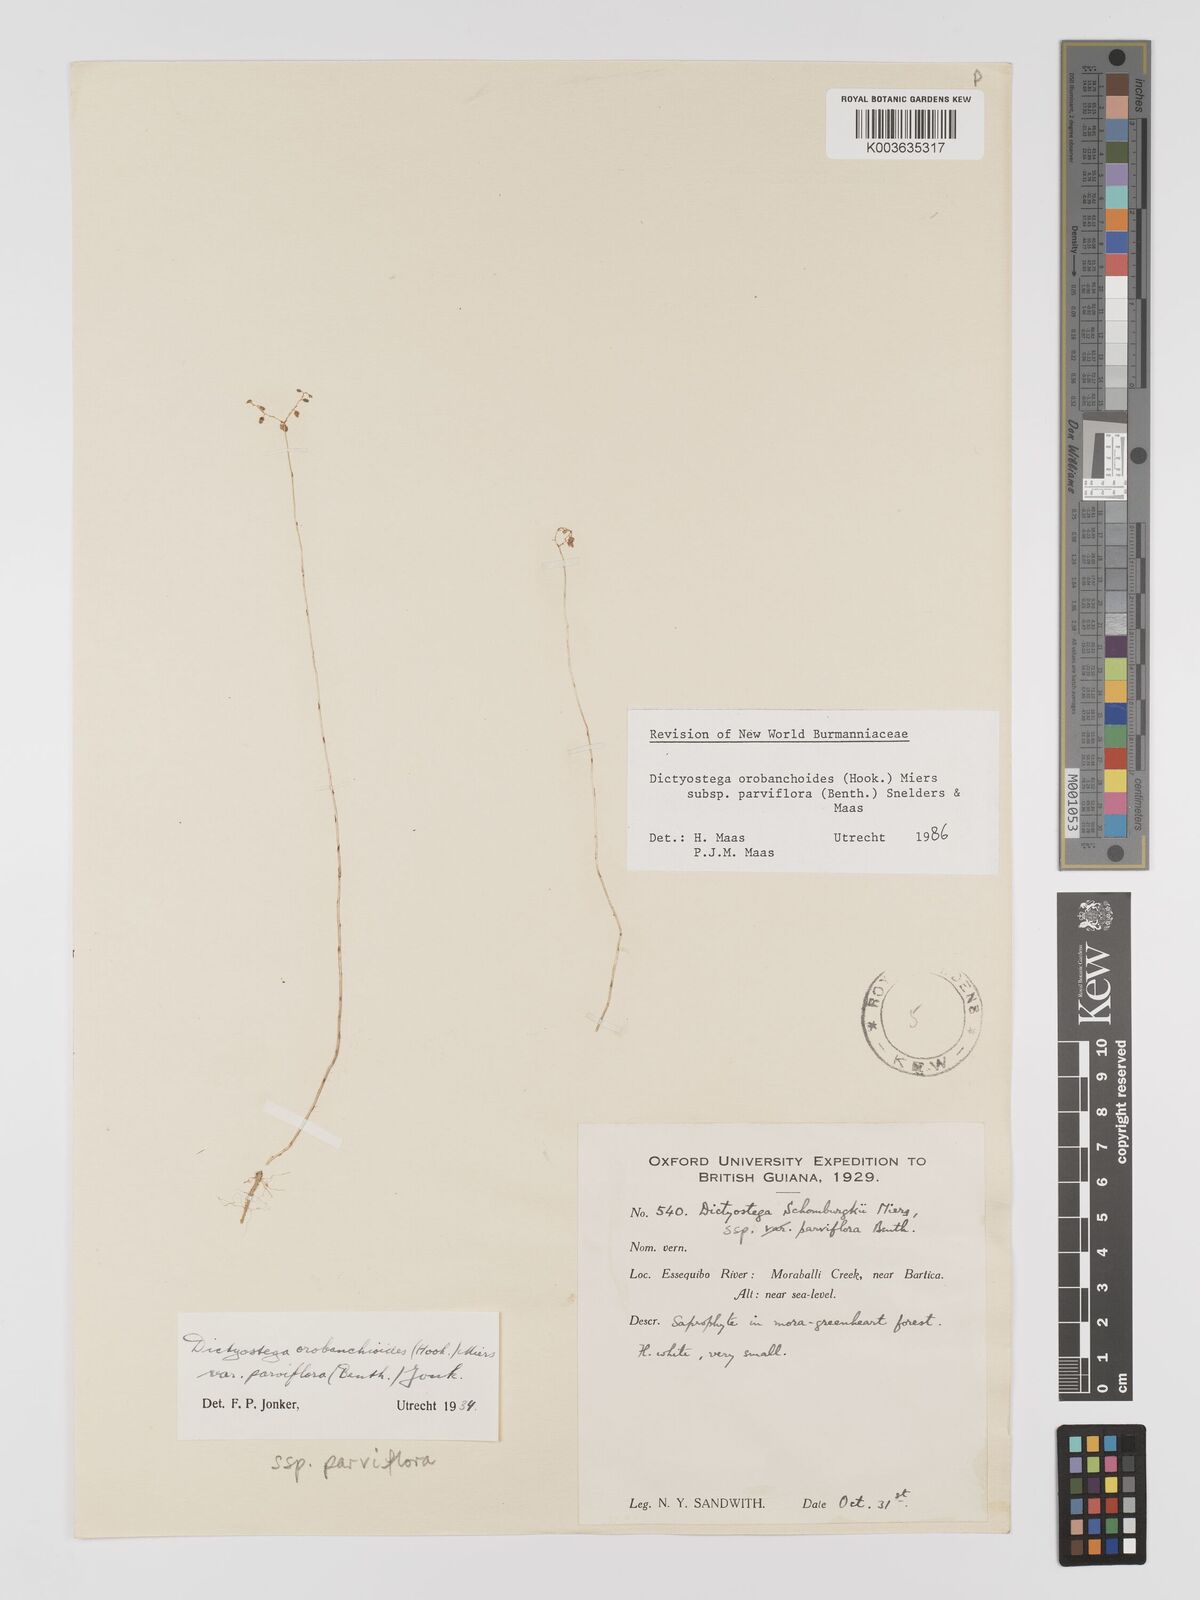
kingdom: Plantae
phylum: Tracheophyta
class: Liliopsida
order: Dioscoreales
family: Burmanniaceae
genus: Dictyostega
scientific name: Dictyostega orobanchoides
